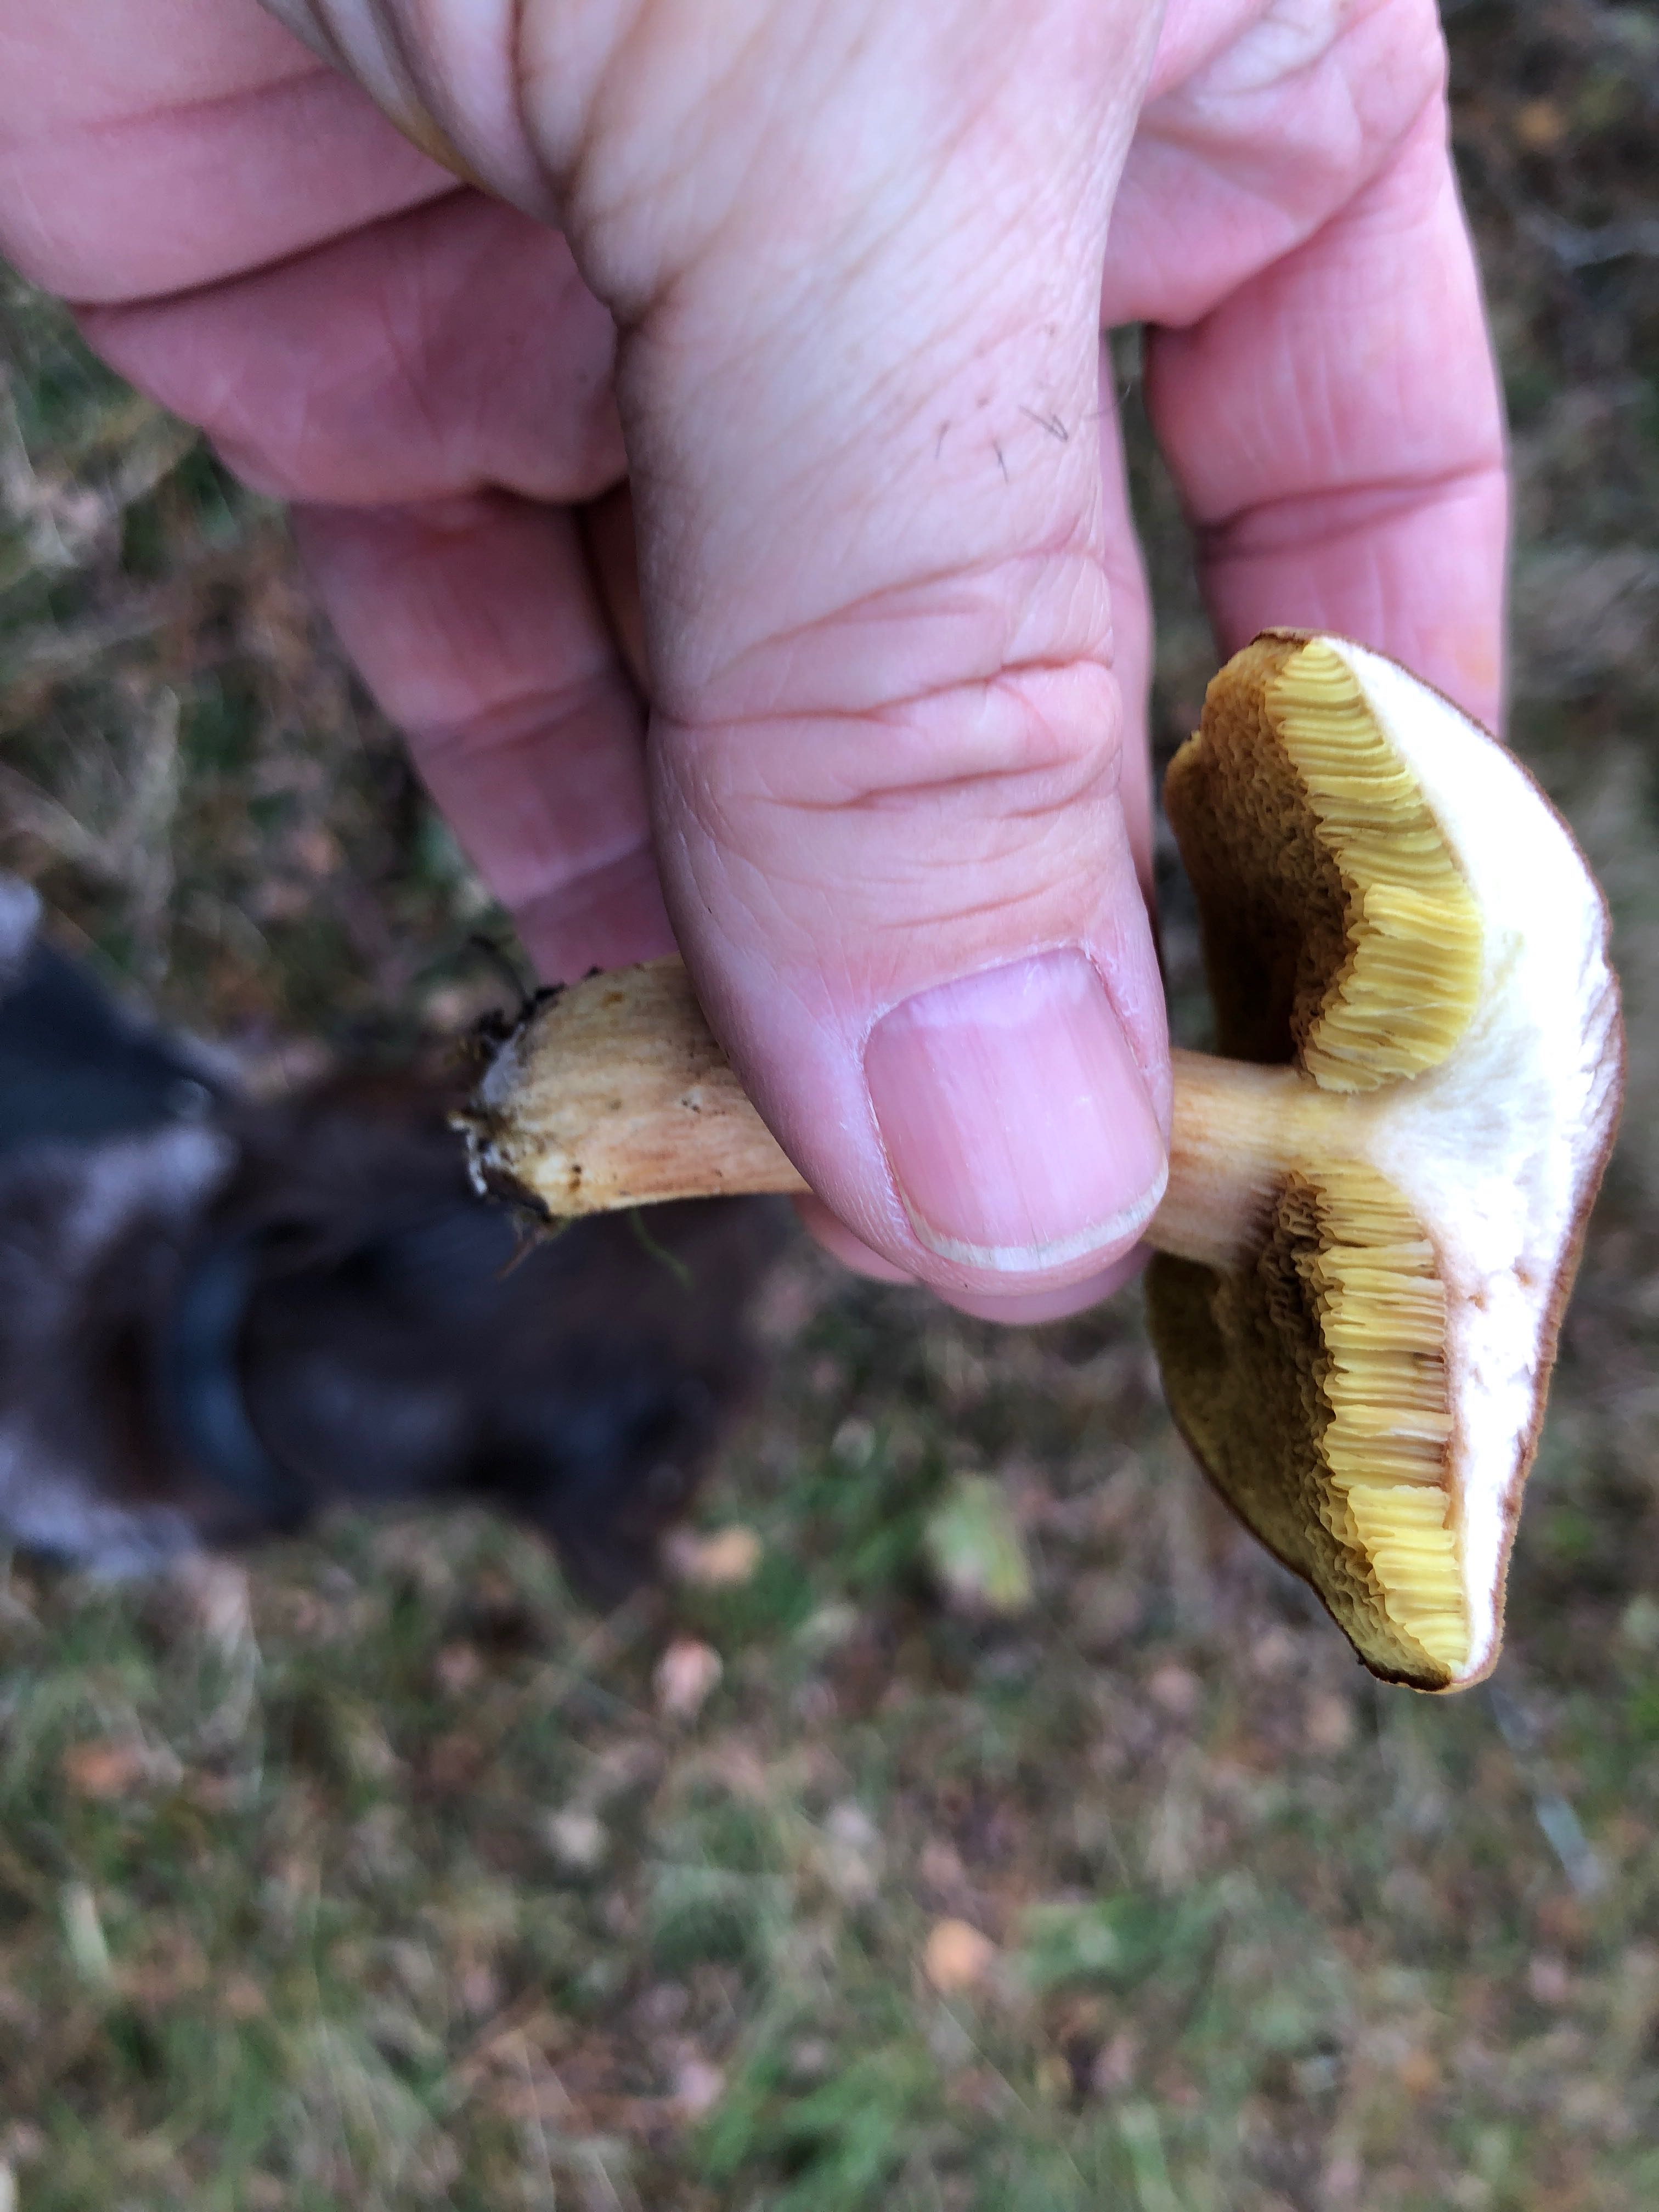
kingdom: Fungi
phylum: Basidiomycota
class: Agaricomycetes
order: Boletales
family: Boletaceae
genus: Xerocomus
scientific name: Xerocomus ferrugineus
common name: vaskeskinds-rørhat
